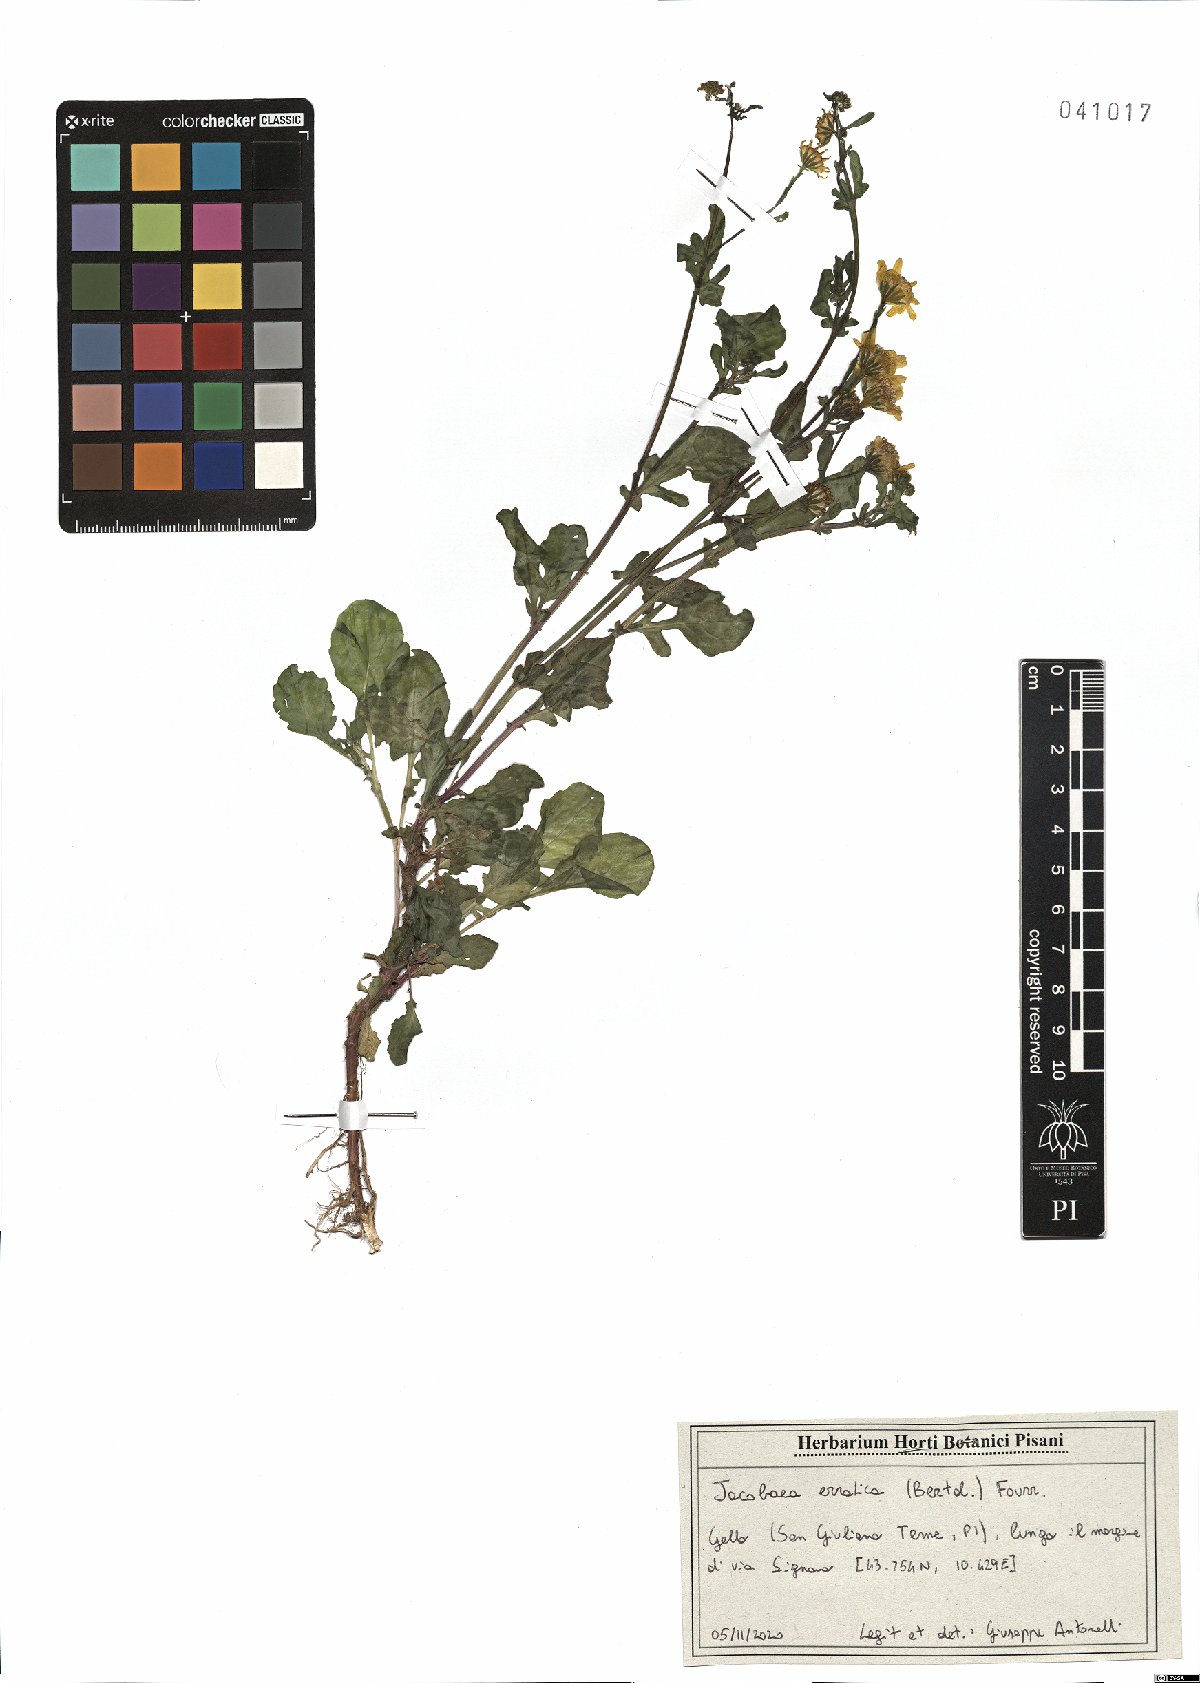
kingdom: Plantae
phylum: Tracheophyta
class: Magnoliopsida
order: Asterales
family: Asteraceae
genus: Jacobaea
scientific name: Jacobaea erratica
